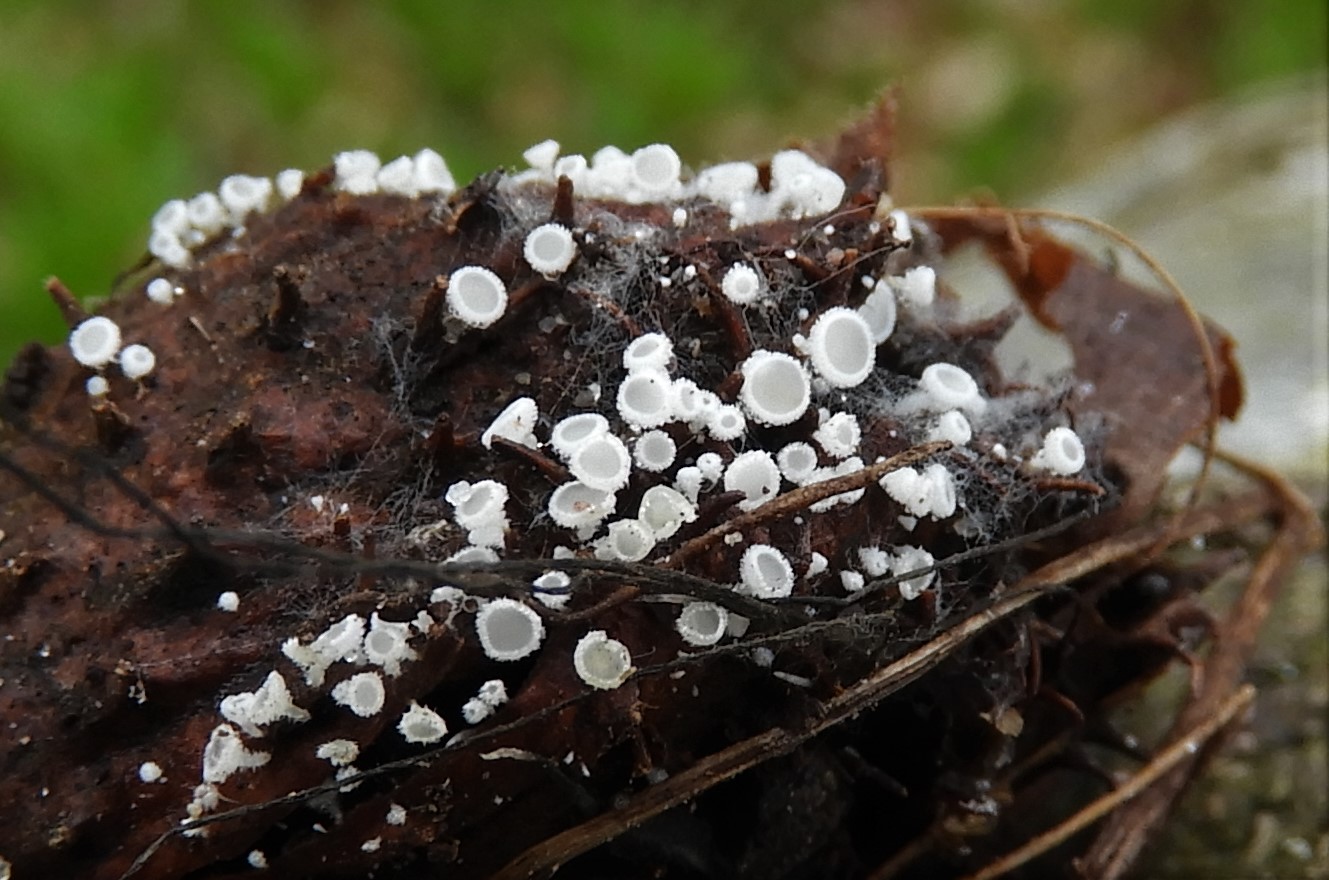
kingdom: Fungi
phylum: Ascomycota
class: Leotiomycetes
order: Helotiales
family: Lachnaceae
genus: Lachnum
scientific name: Lachnum virgineum
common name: jomfru-frynseskive
